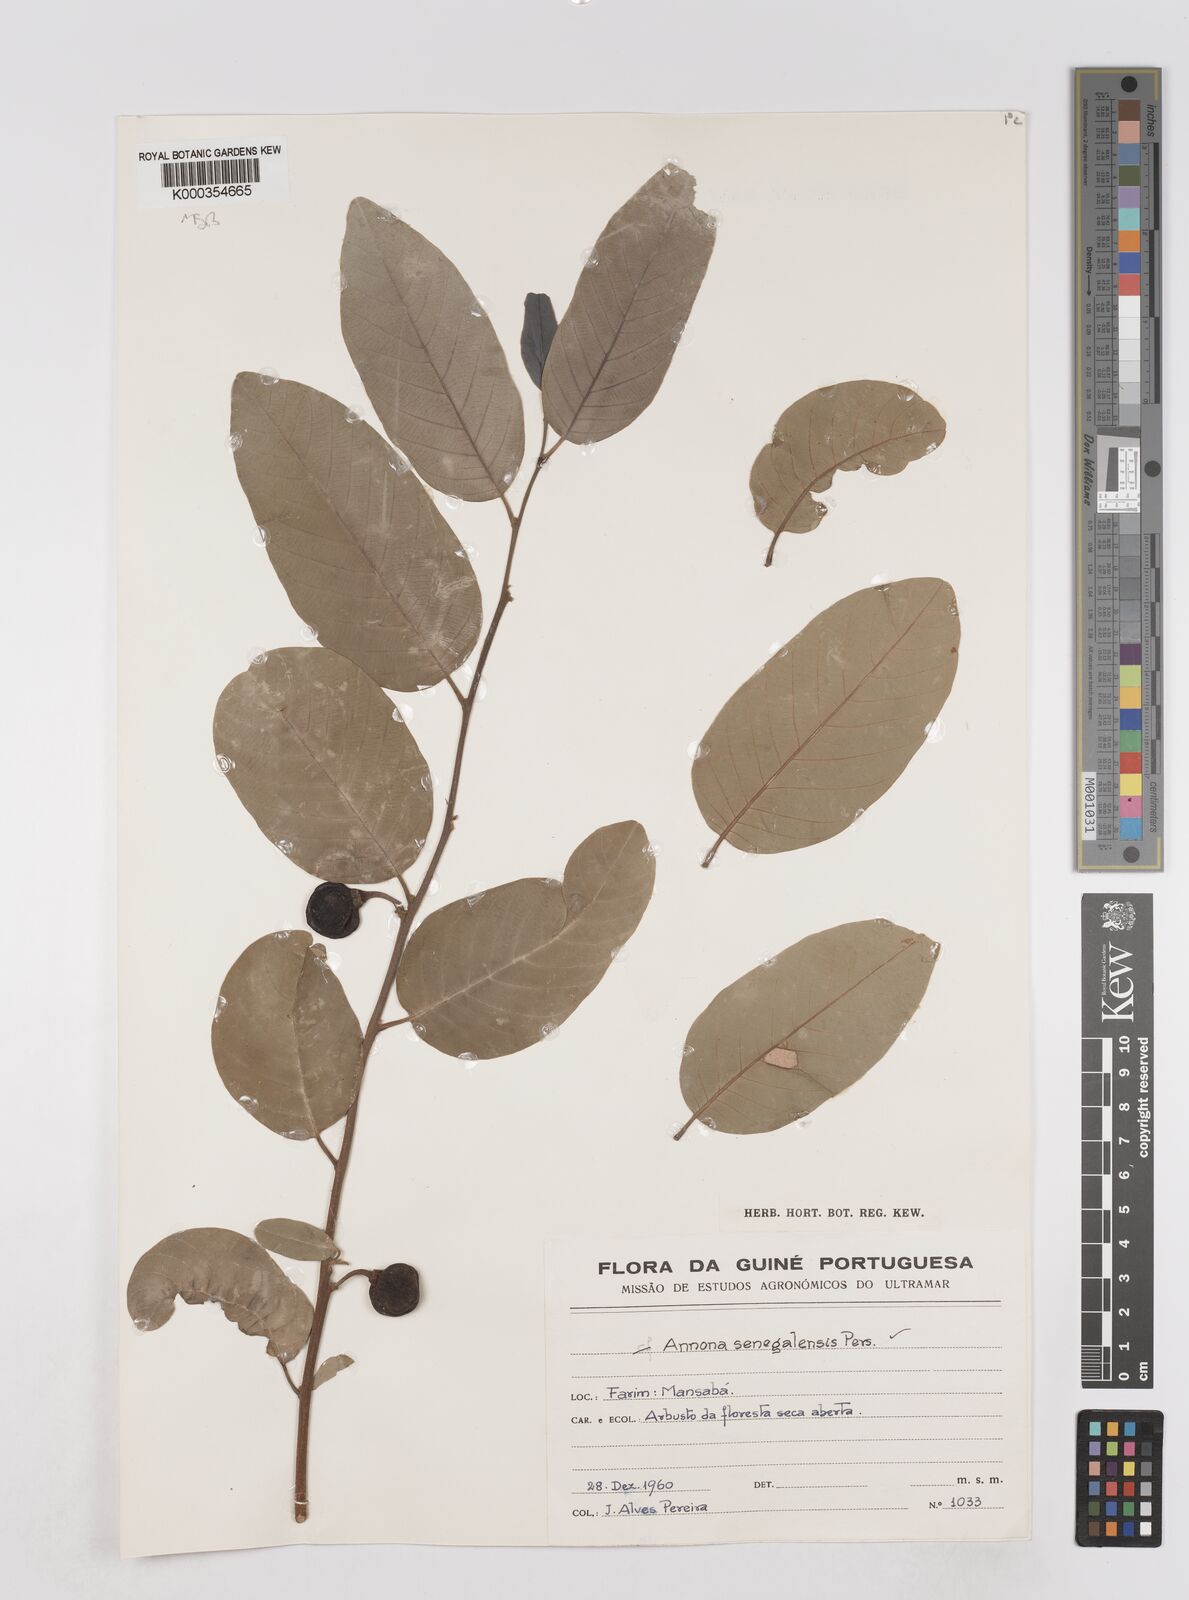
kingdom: Plantae
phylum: Tracheophyta
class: Magnoliopsida
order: Magnoliales
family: Annonaceae
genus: Annona
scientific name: Annona senegalensis
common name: Wild custard-apple
